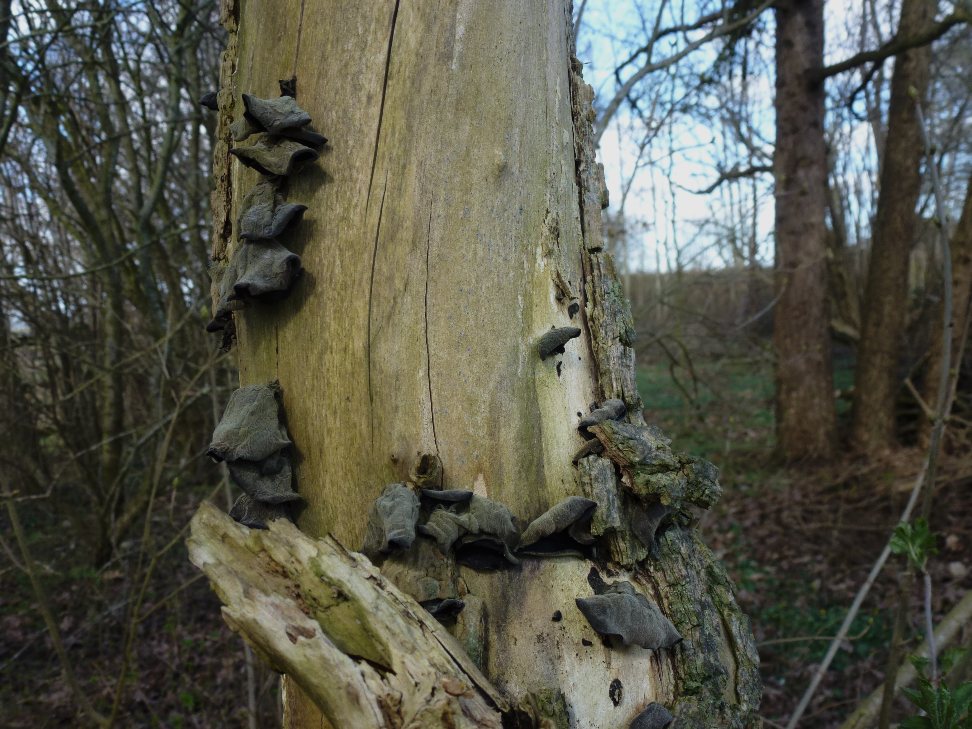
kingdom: Fungi
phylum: Basidiomycota
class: Agaricomycetes
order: Auriculariales
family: Auriculariaceae
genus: Auricularia
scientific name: Auricularia auricula-judae
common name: almindelig judasøre
